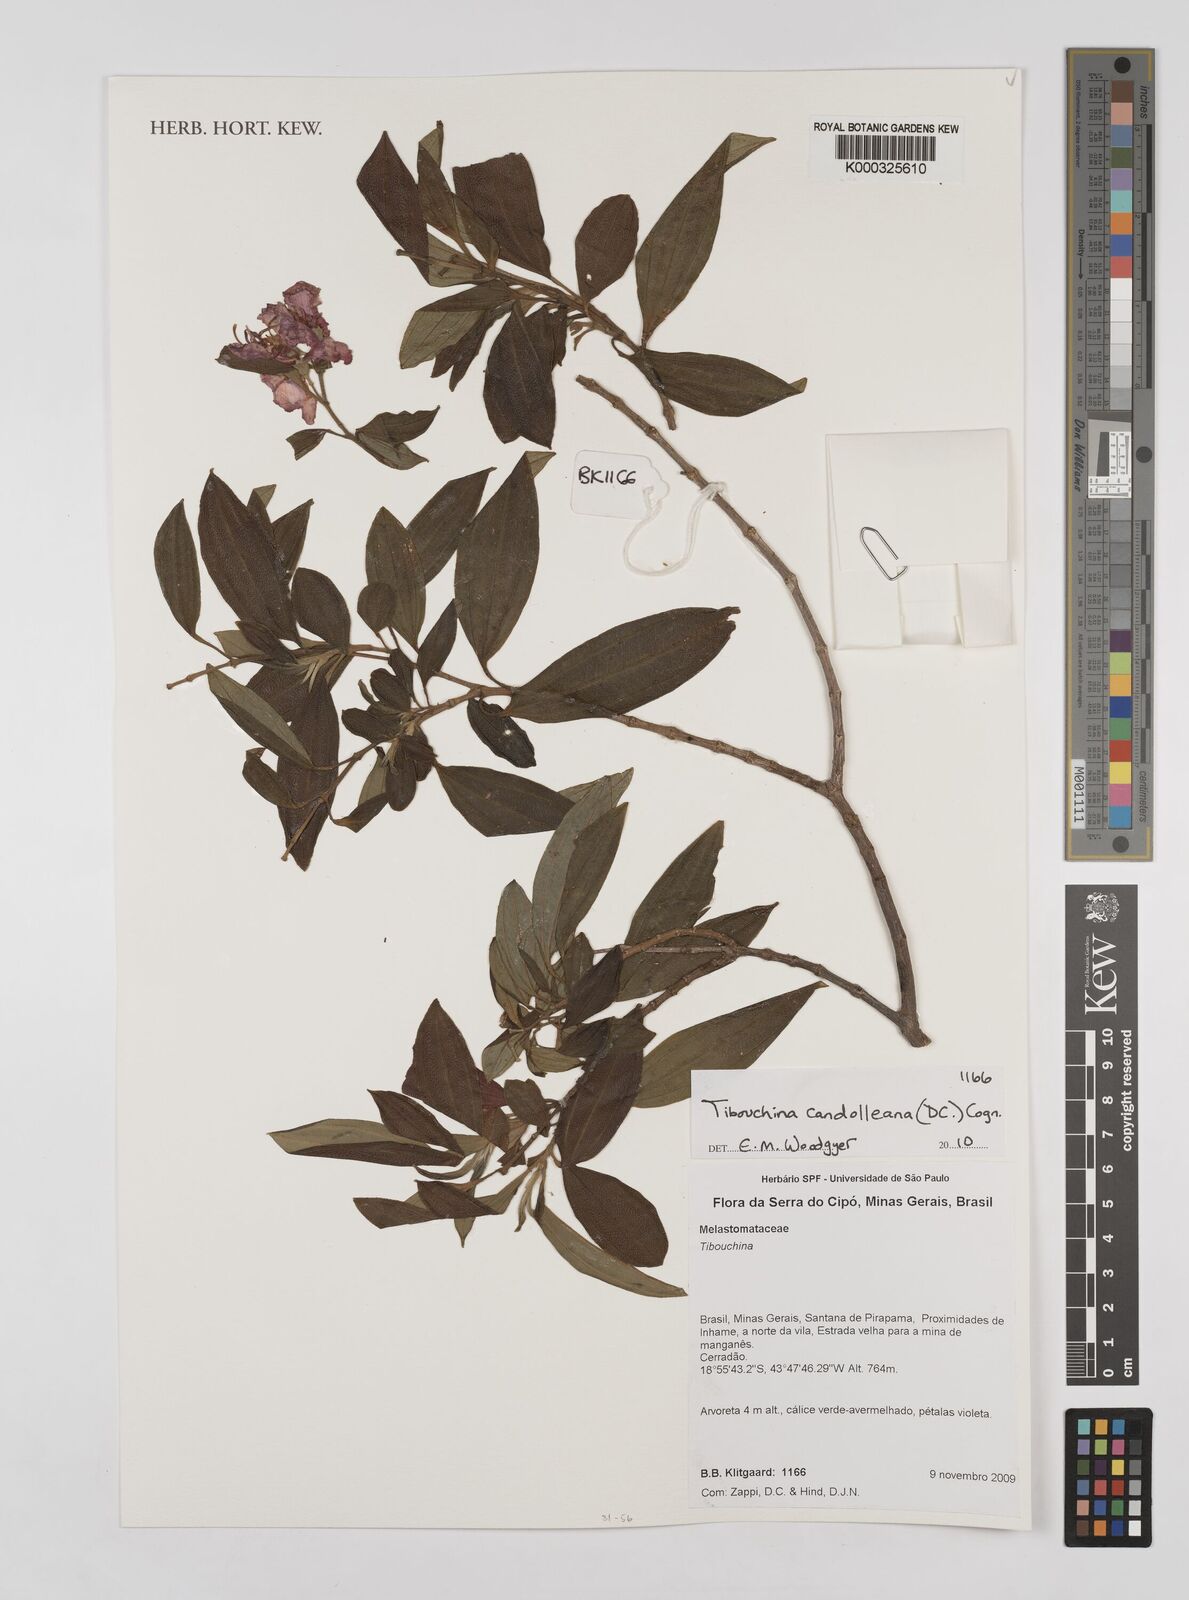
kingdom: Plantae
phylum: Tracheophyta
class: Magnoliopsida
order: Myrtales
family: Melastomataceae
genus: Pleroma
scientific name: Pleroma candolleanum
